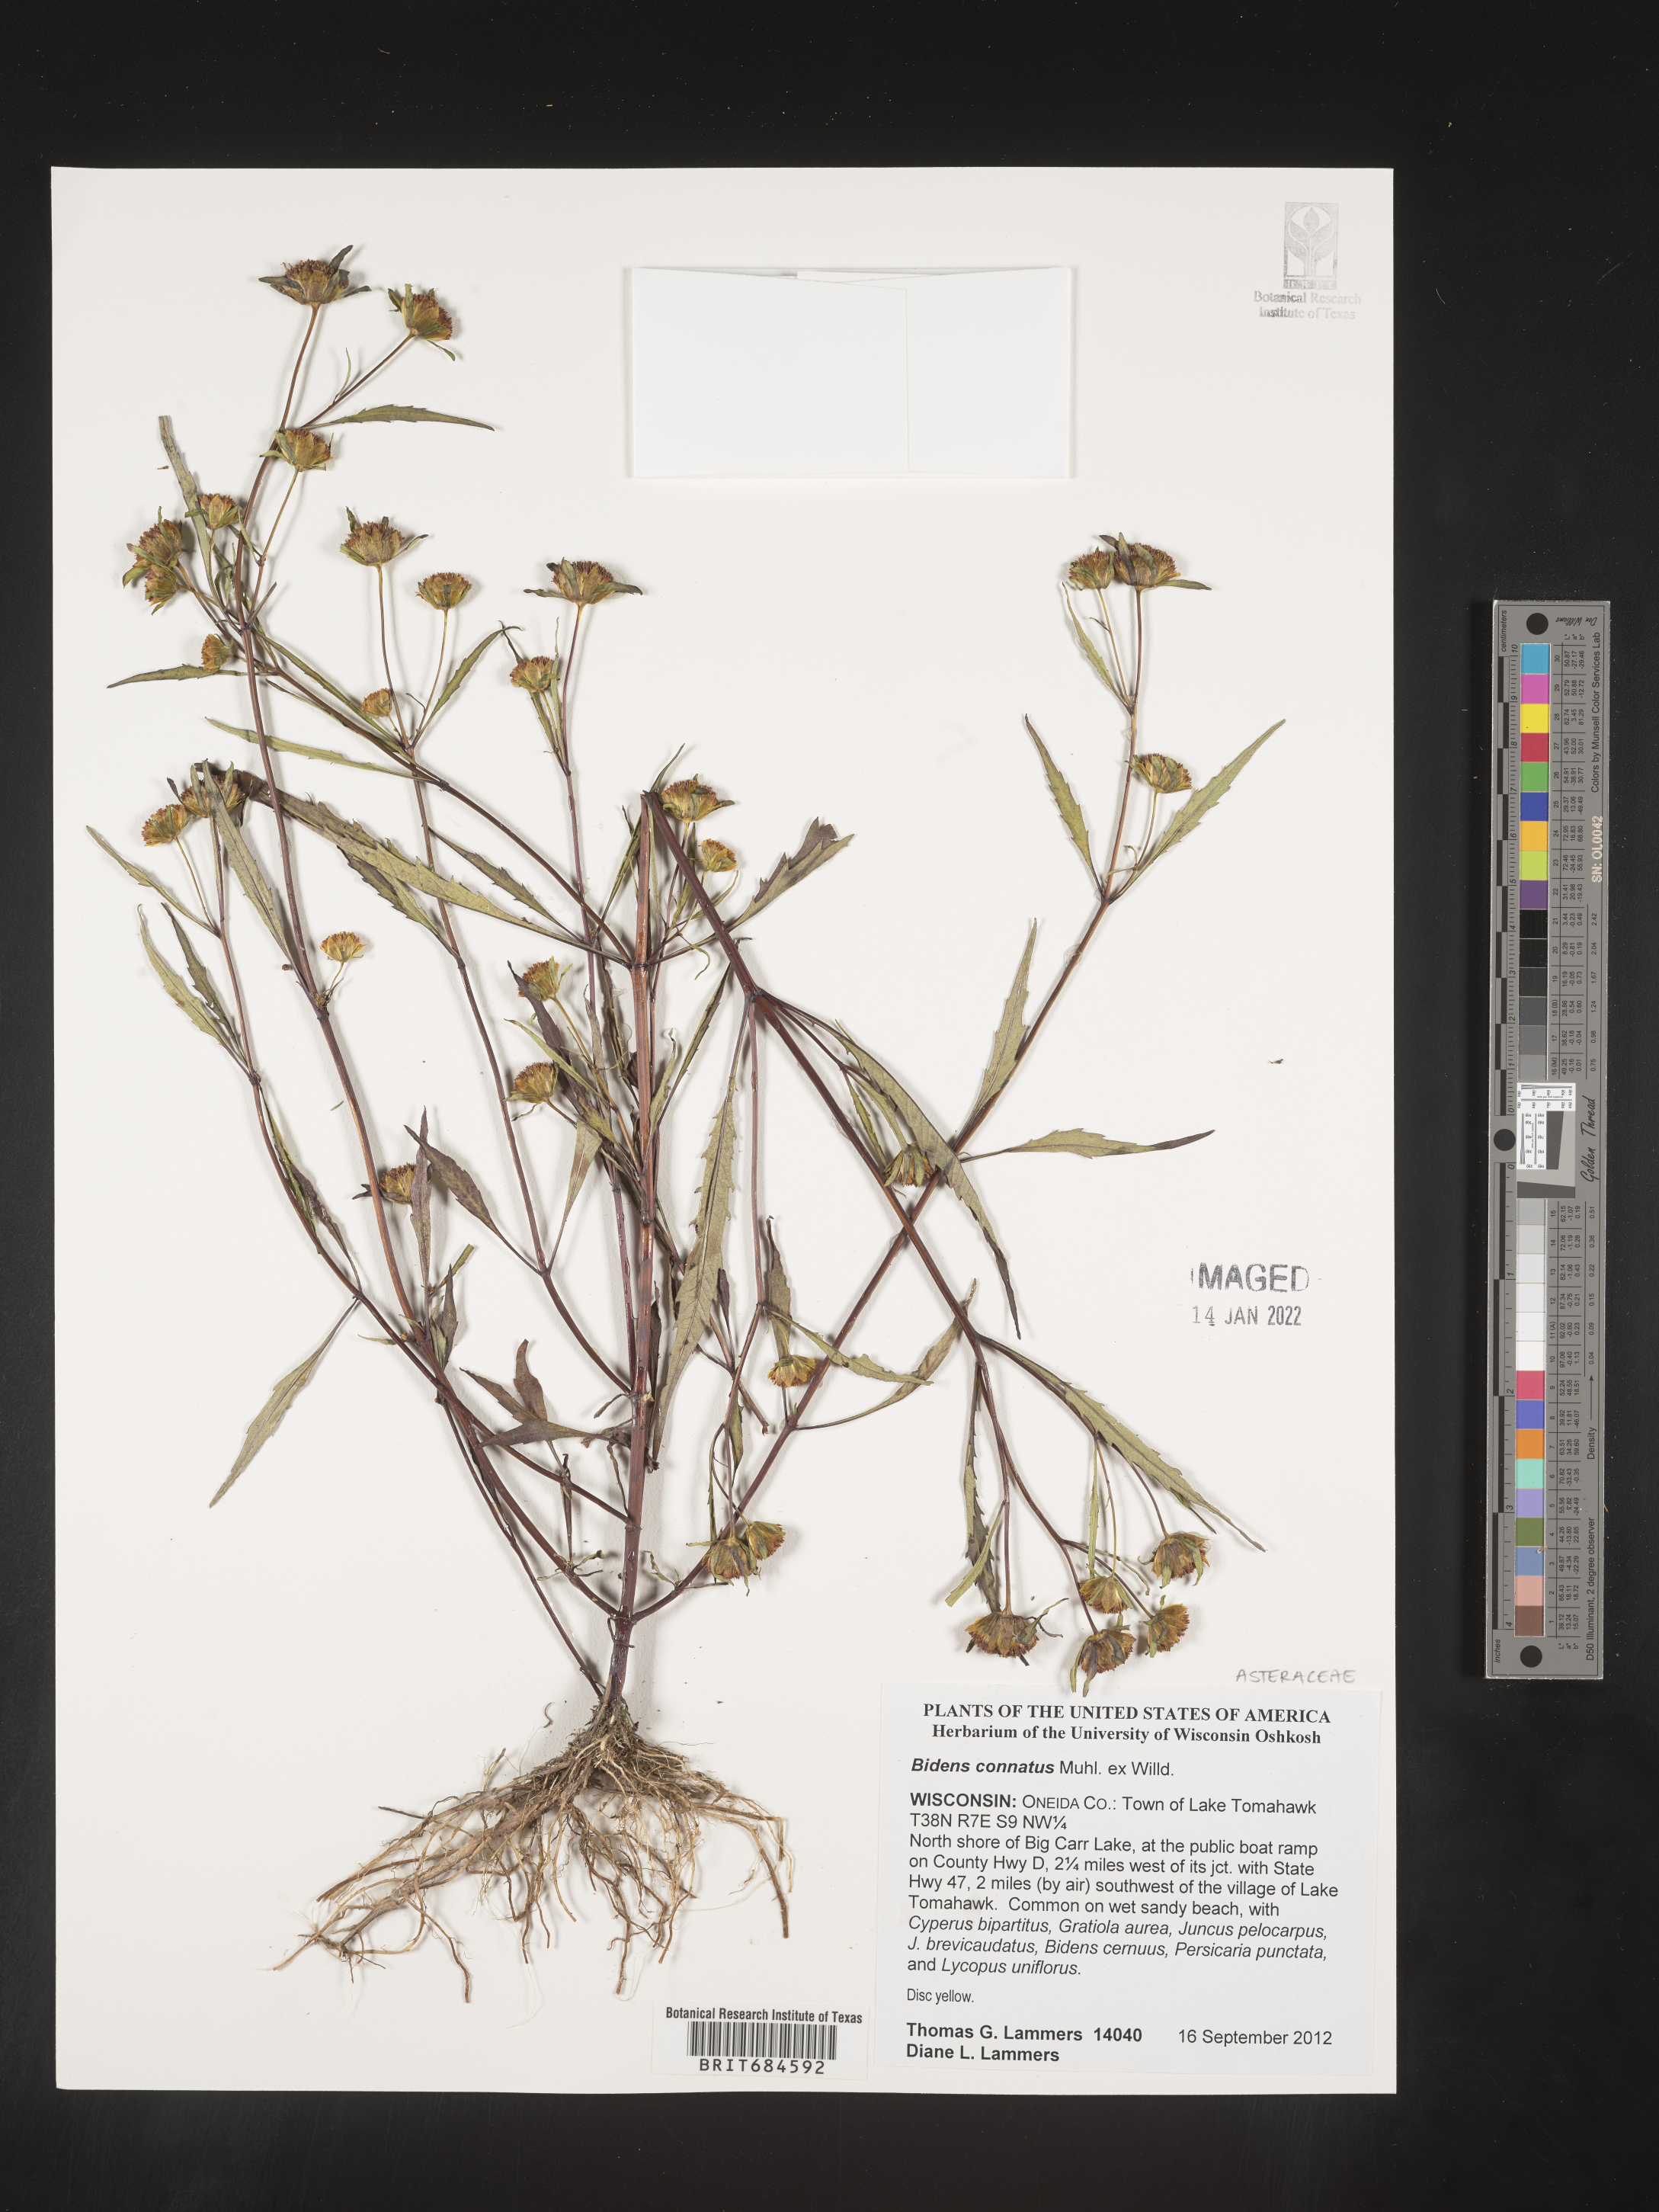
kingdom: Plantae
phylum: Tracheophyta
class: Magnoliopsida
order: Asterales
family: Asteraceae
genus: Bidens
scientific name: Bidens connata
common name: London bur-marigold
